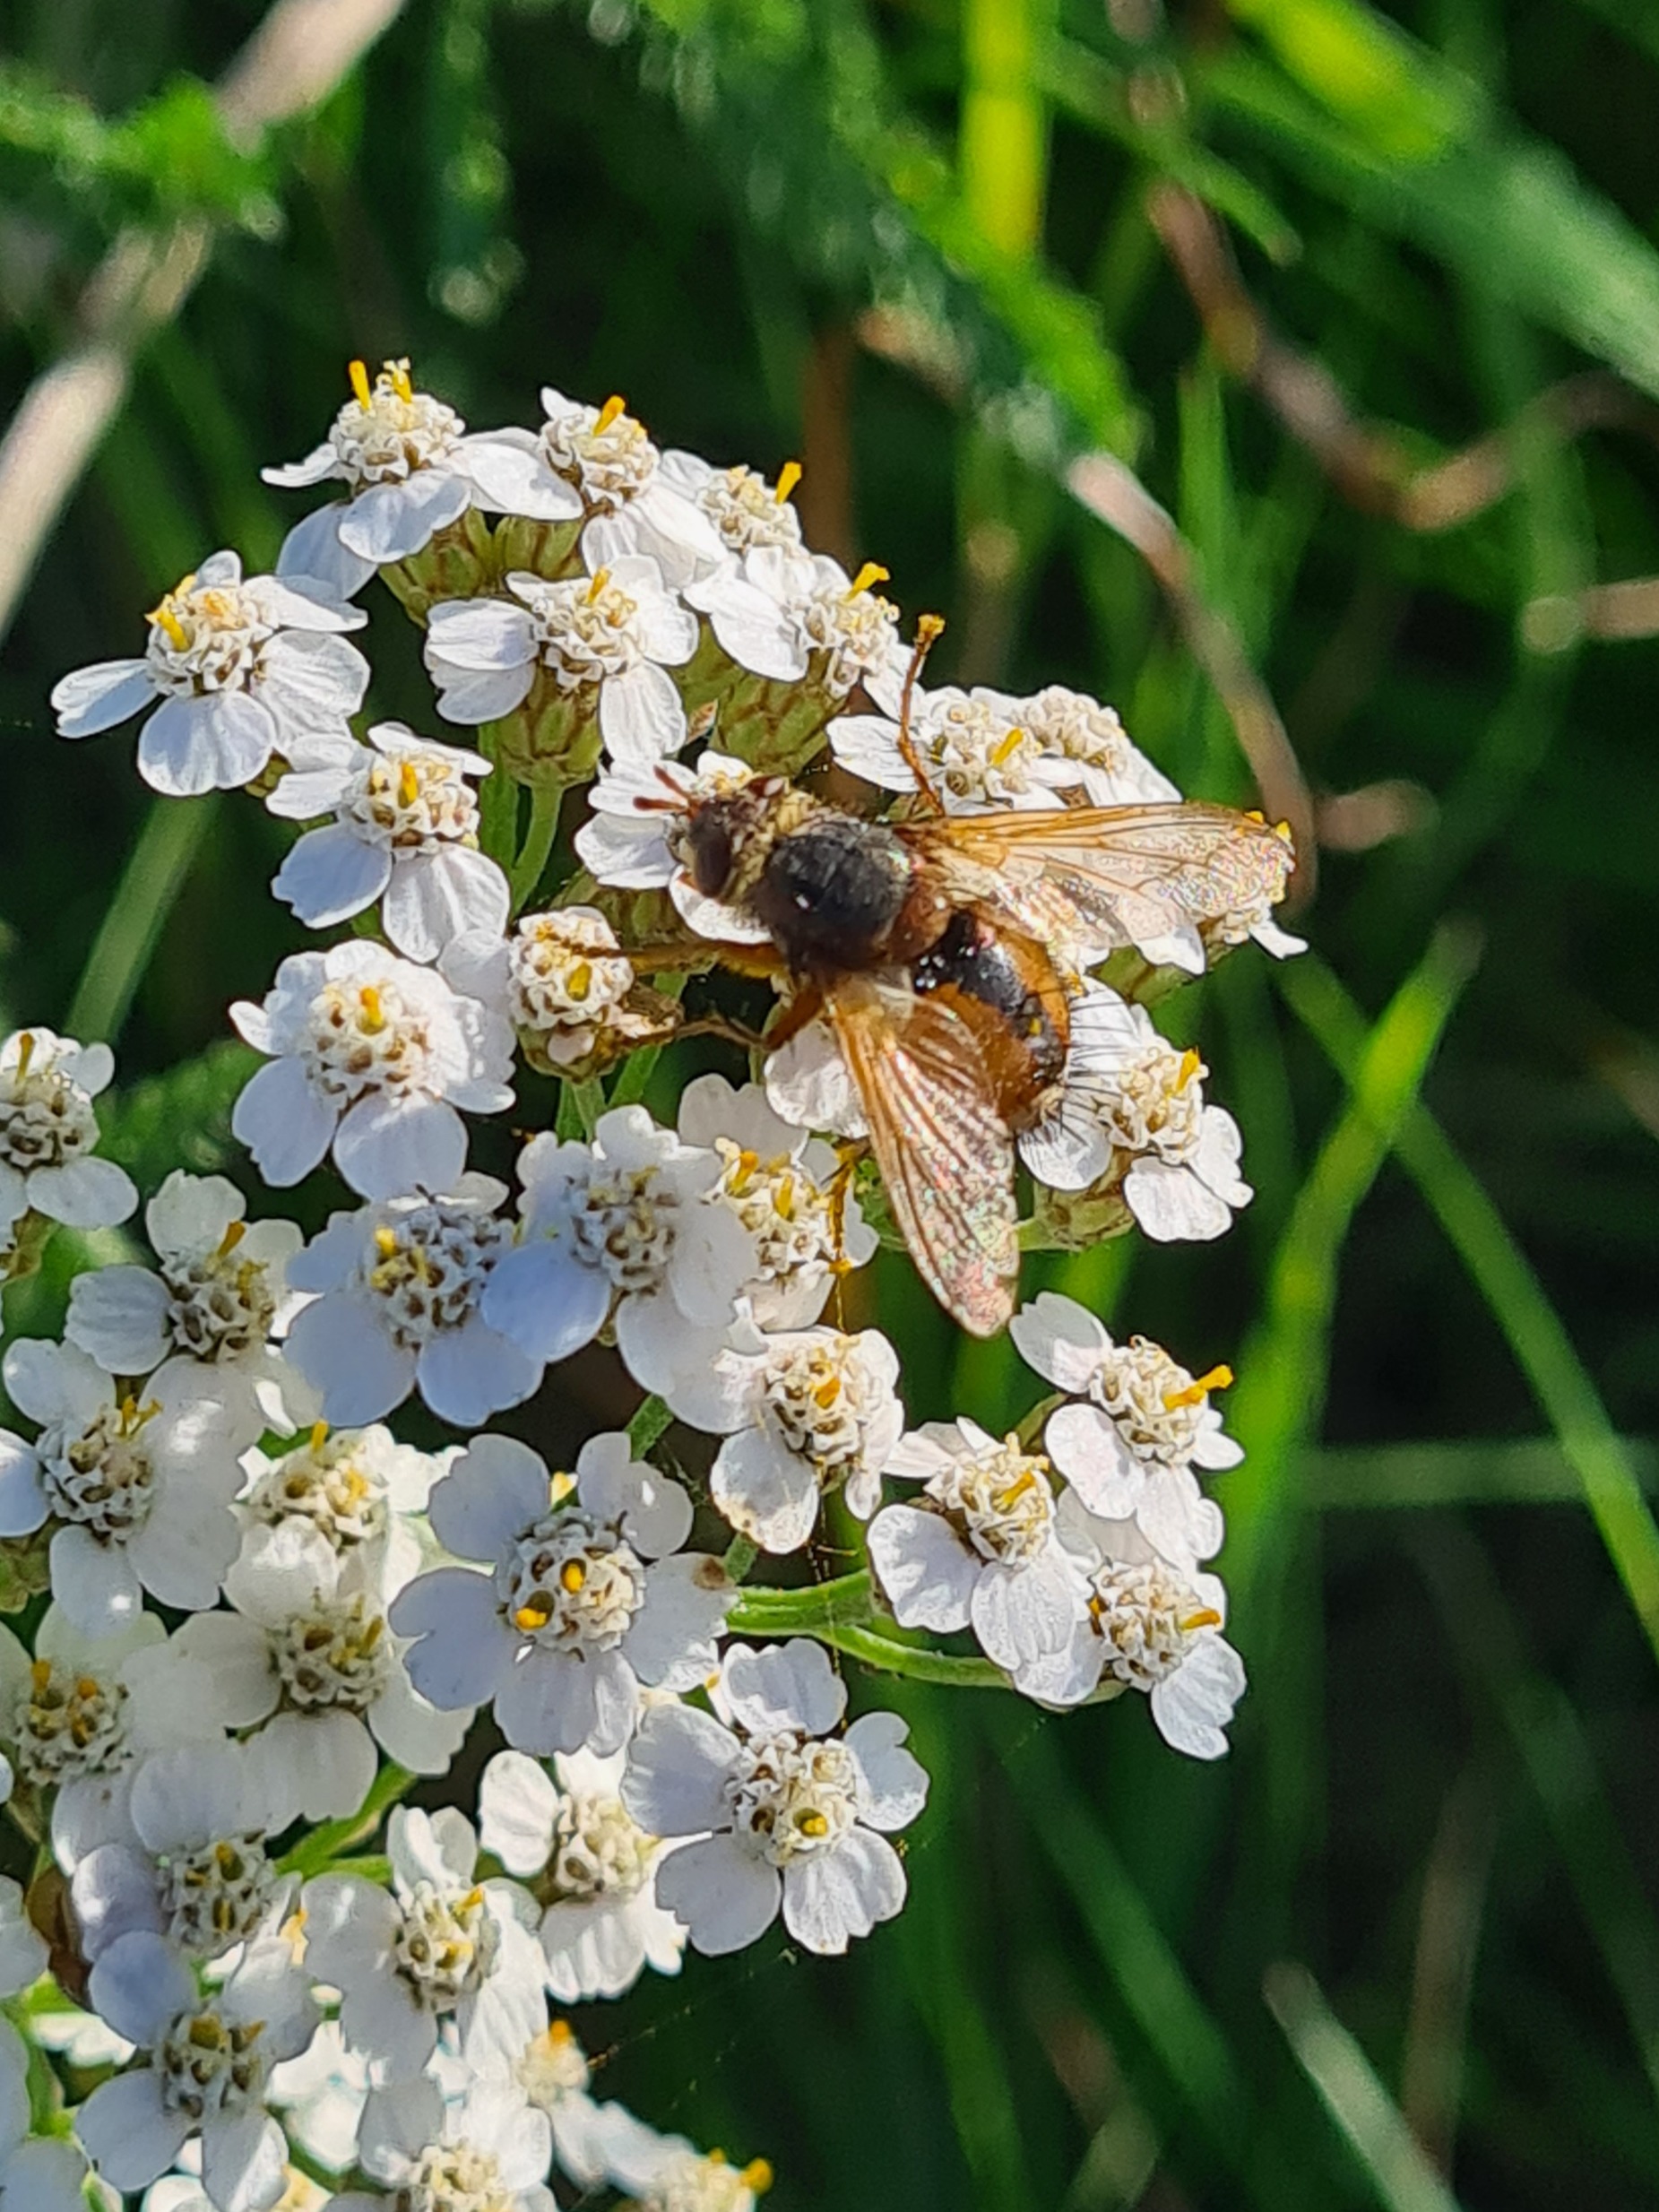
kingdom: Animalia
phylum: Arthropoda
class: Insecta
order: Diptera
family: Tachinidae
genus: Tachina
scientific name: Tachina fera
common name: Mellemfluen oskar
